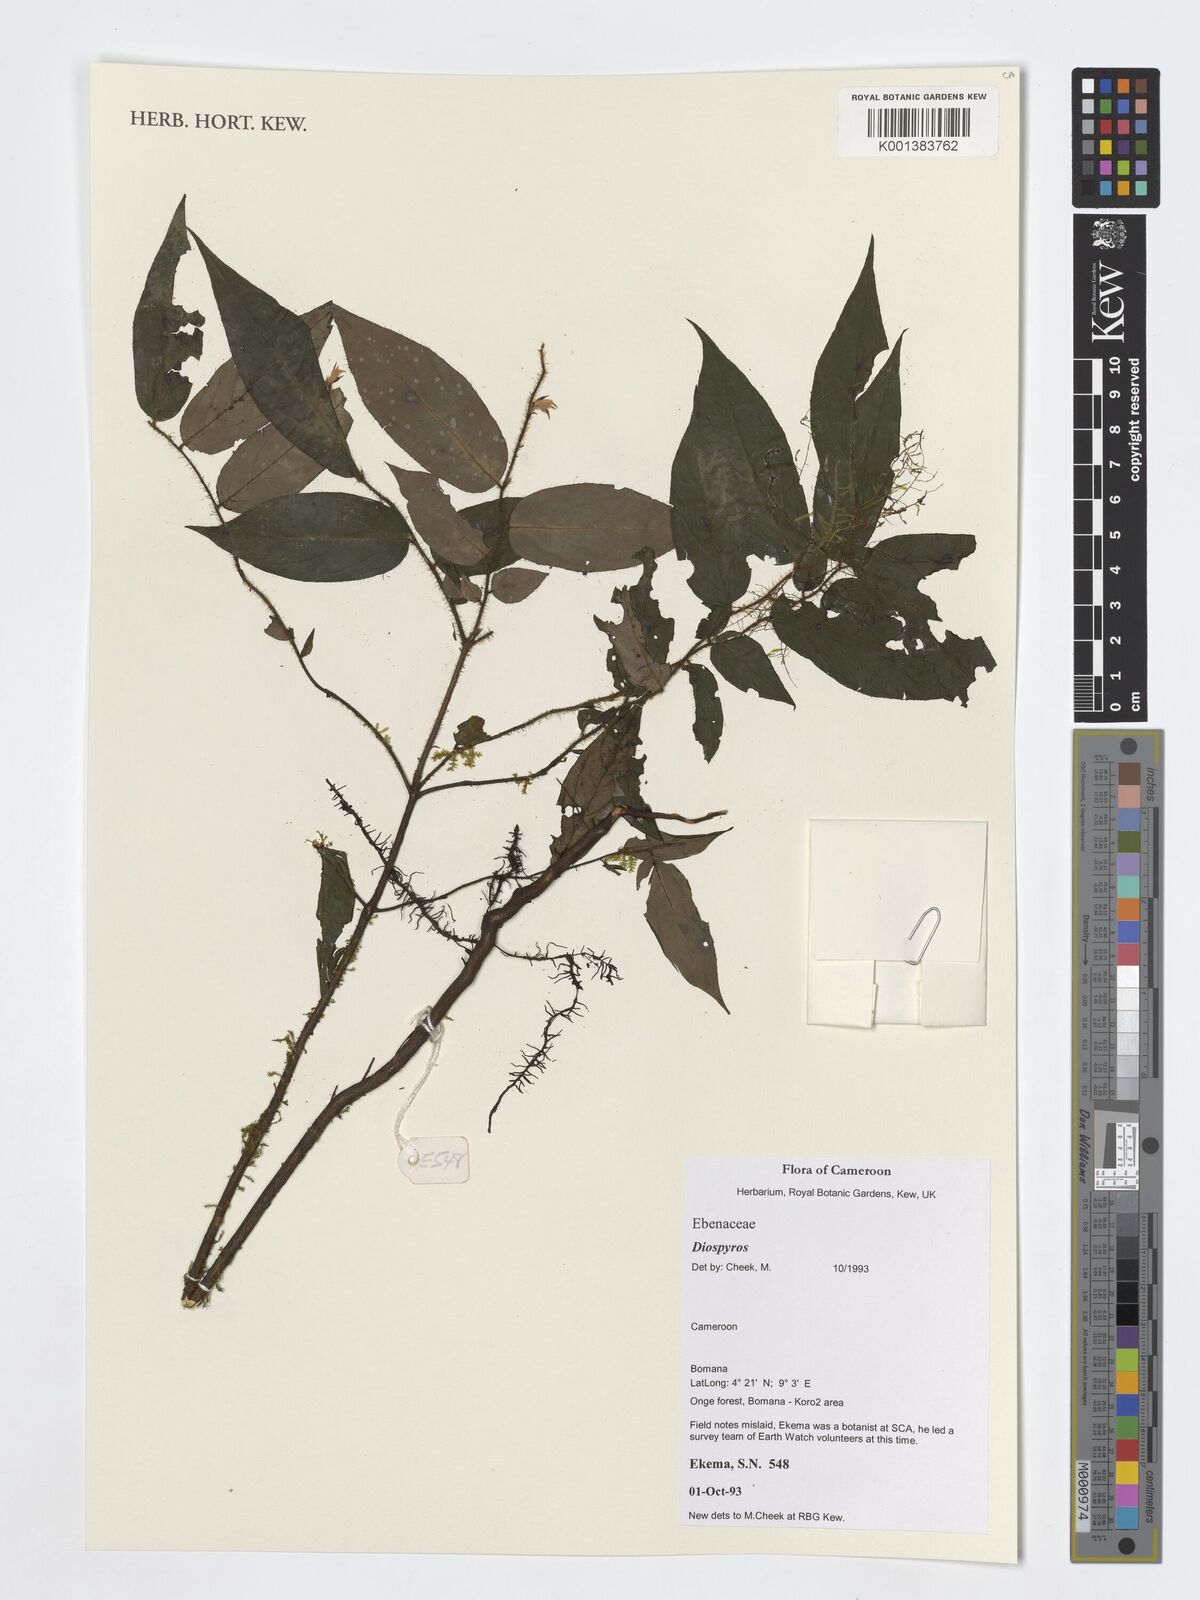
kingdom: Plantae
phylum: Tracheophyta
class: Magnoliopsida
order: Ericales
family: Ebenaceae
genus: Diospyros
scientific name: Diospyros
